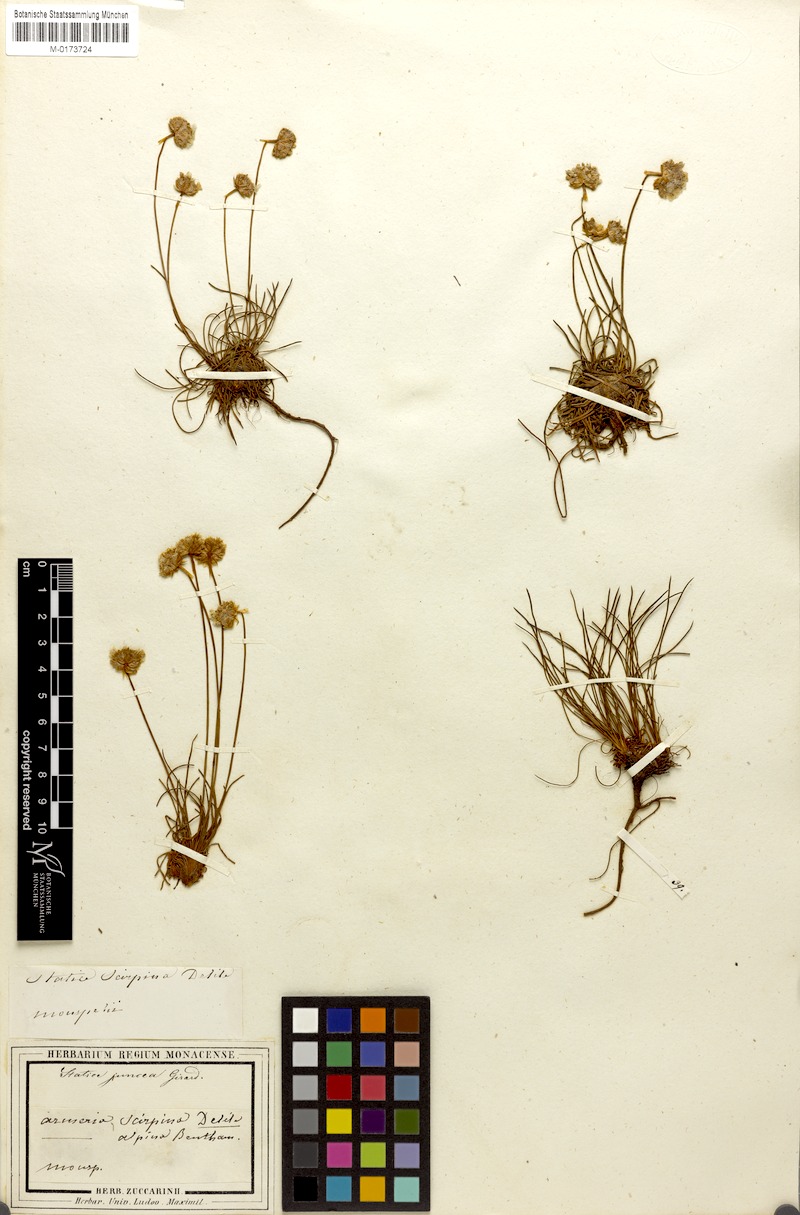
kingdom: Plantae
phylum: Tracheophyta
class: Magnoliopsida
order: Caryophyllales
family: Plumbaginaceae
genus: Armeria
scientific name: Armeria girardii
